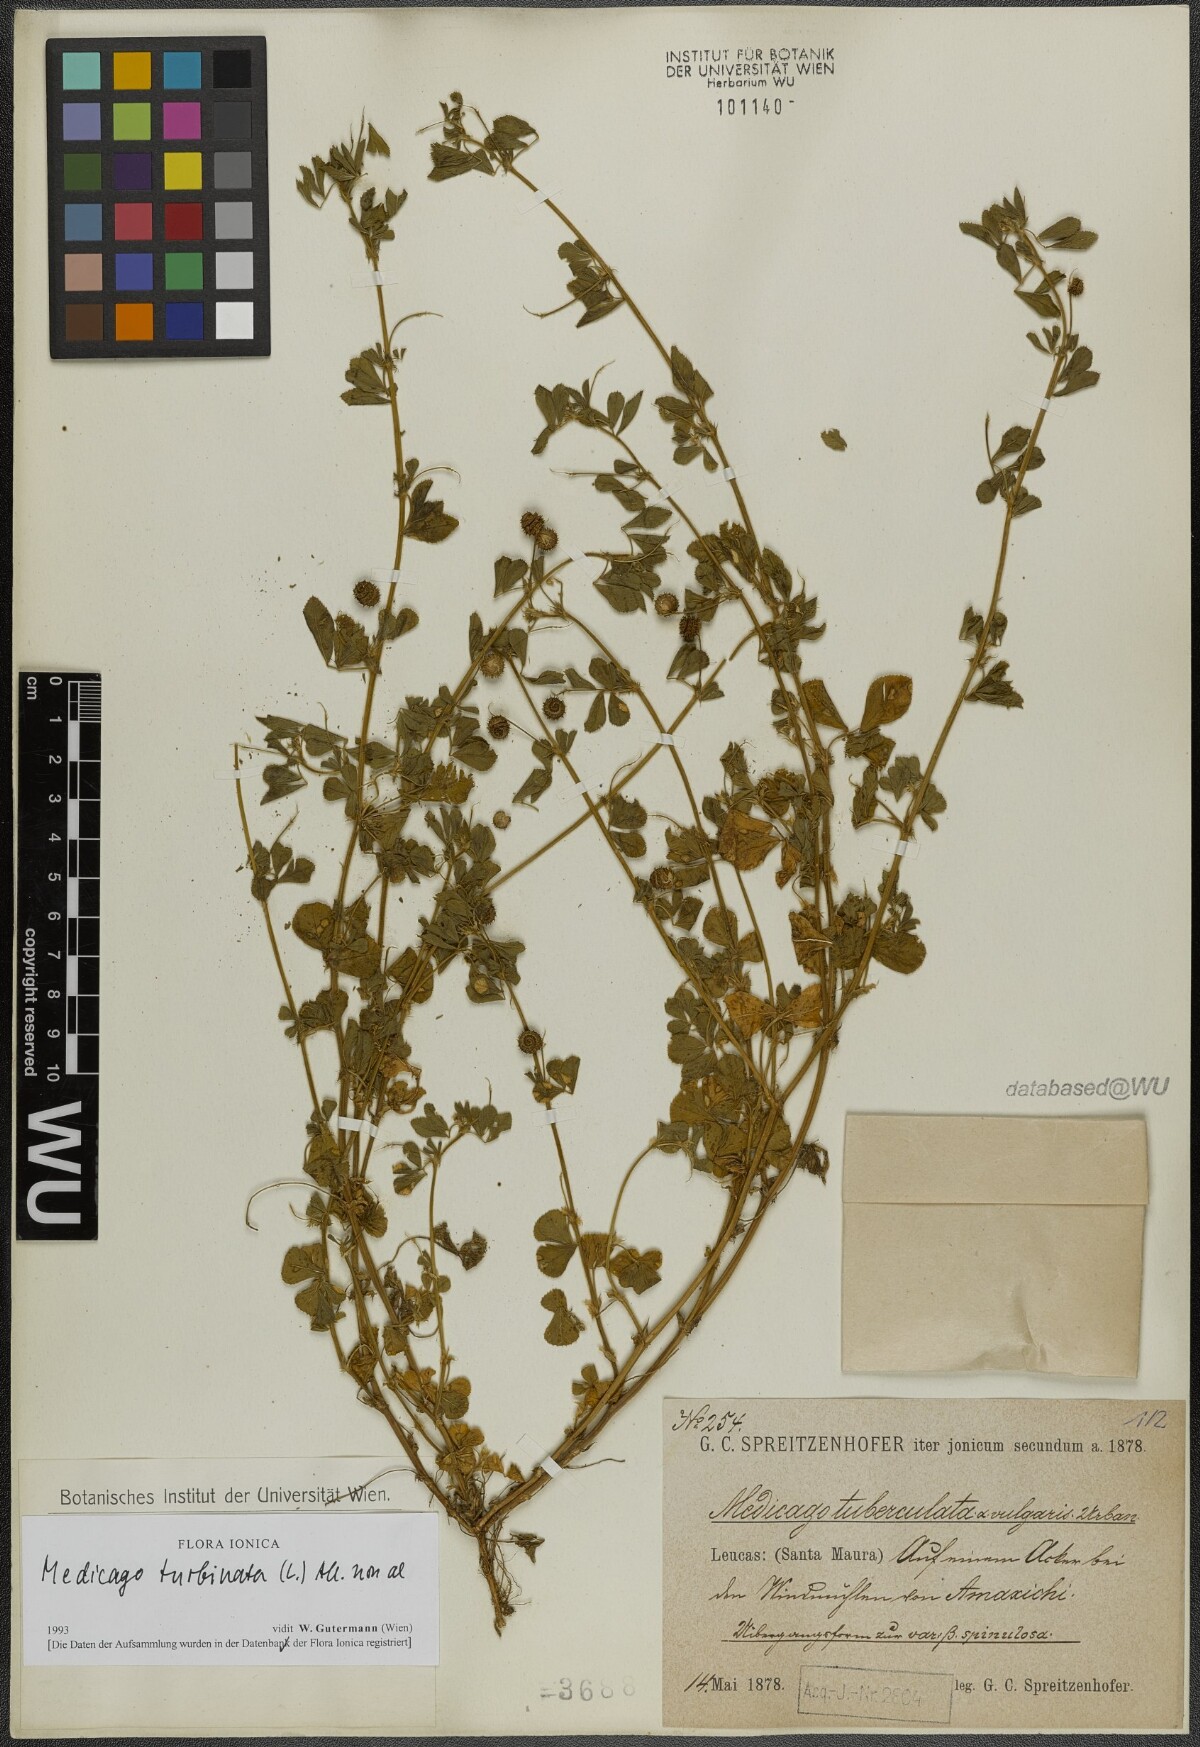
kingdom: Plantae
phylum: Tracheophyta
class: Magnoliopsida
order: Fabales
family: Fabaceae
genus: Medicago
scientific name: Medicago turbinata
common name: Southern medick
